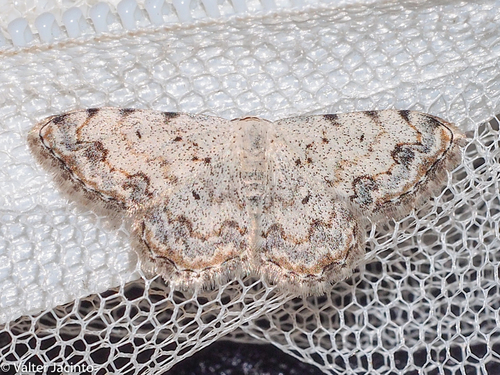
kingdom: Animalia
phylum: Arthropoda
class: Insecta
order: Lepidoptera
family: Geometridae
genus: Scopula
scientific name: Scopula submutata
